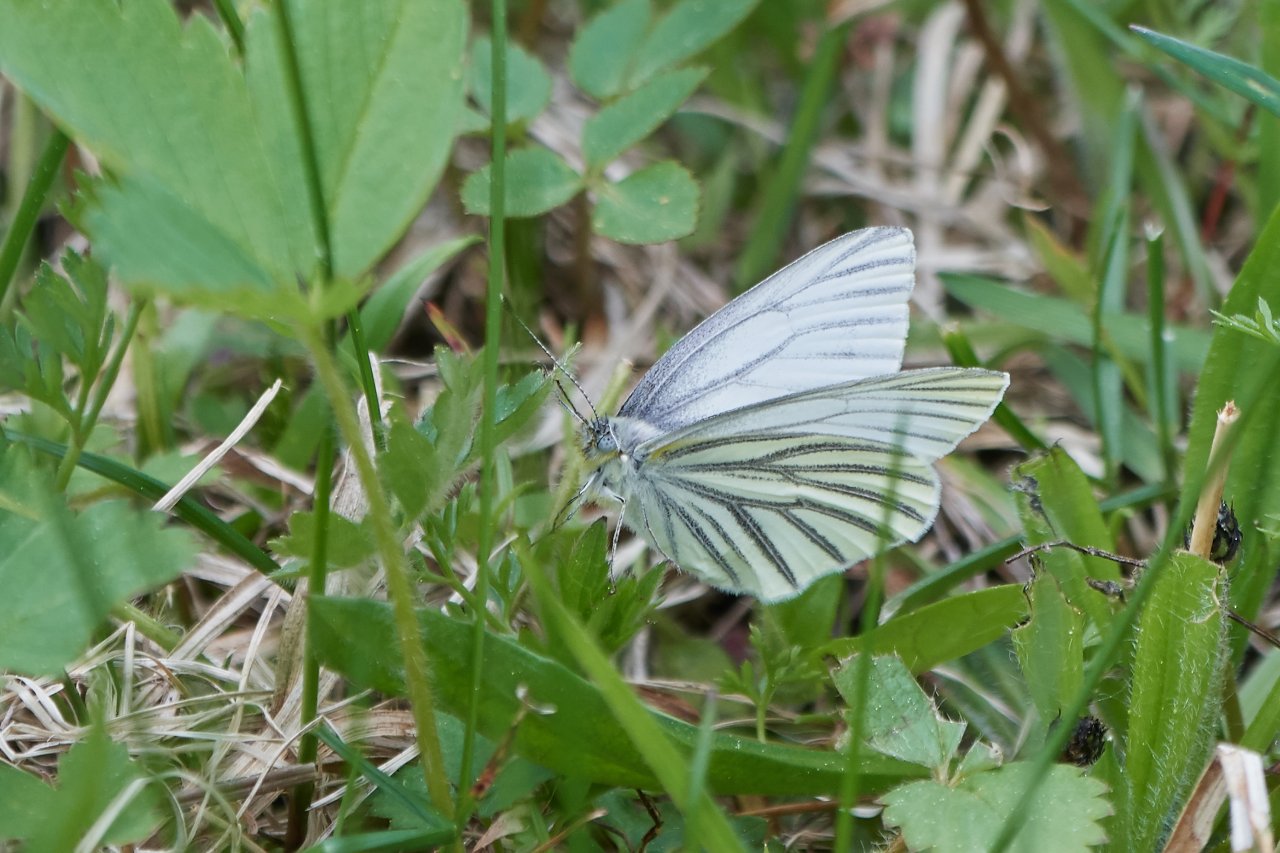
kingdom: Animalia
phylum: Arthropoda
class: Insecta
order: Lepidoptera
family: Pieridae
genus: Pieris
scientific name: Pieris oleracea
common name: Mustard White
